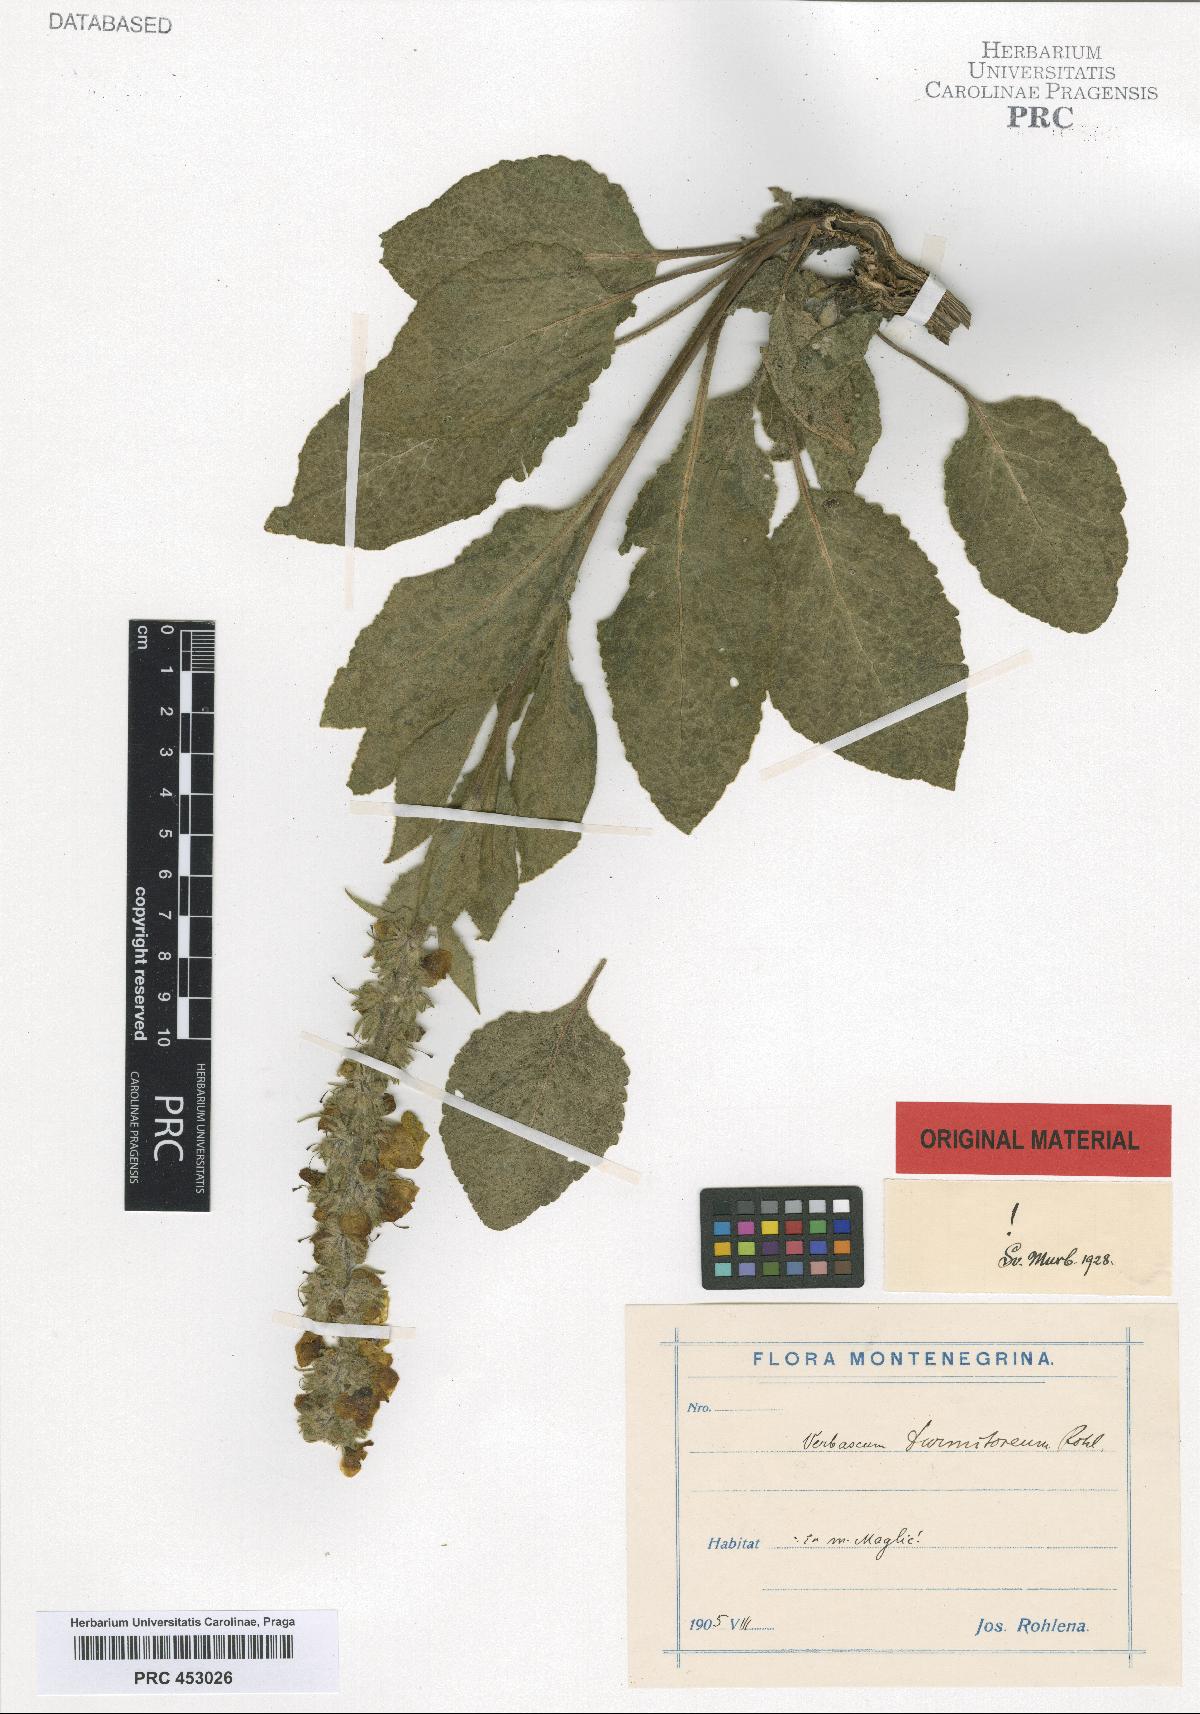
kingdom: Plantae
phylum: Tracheophyta
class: Magnoliopsida
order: Lamiales
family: Scrophulariaceae
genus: Verbascum
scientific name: Verbascum durmitoreum
